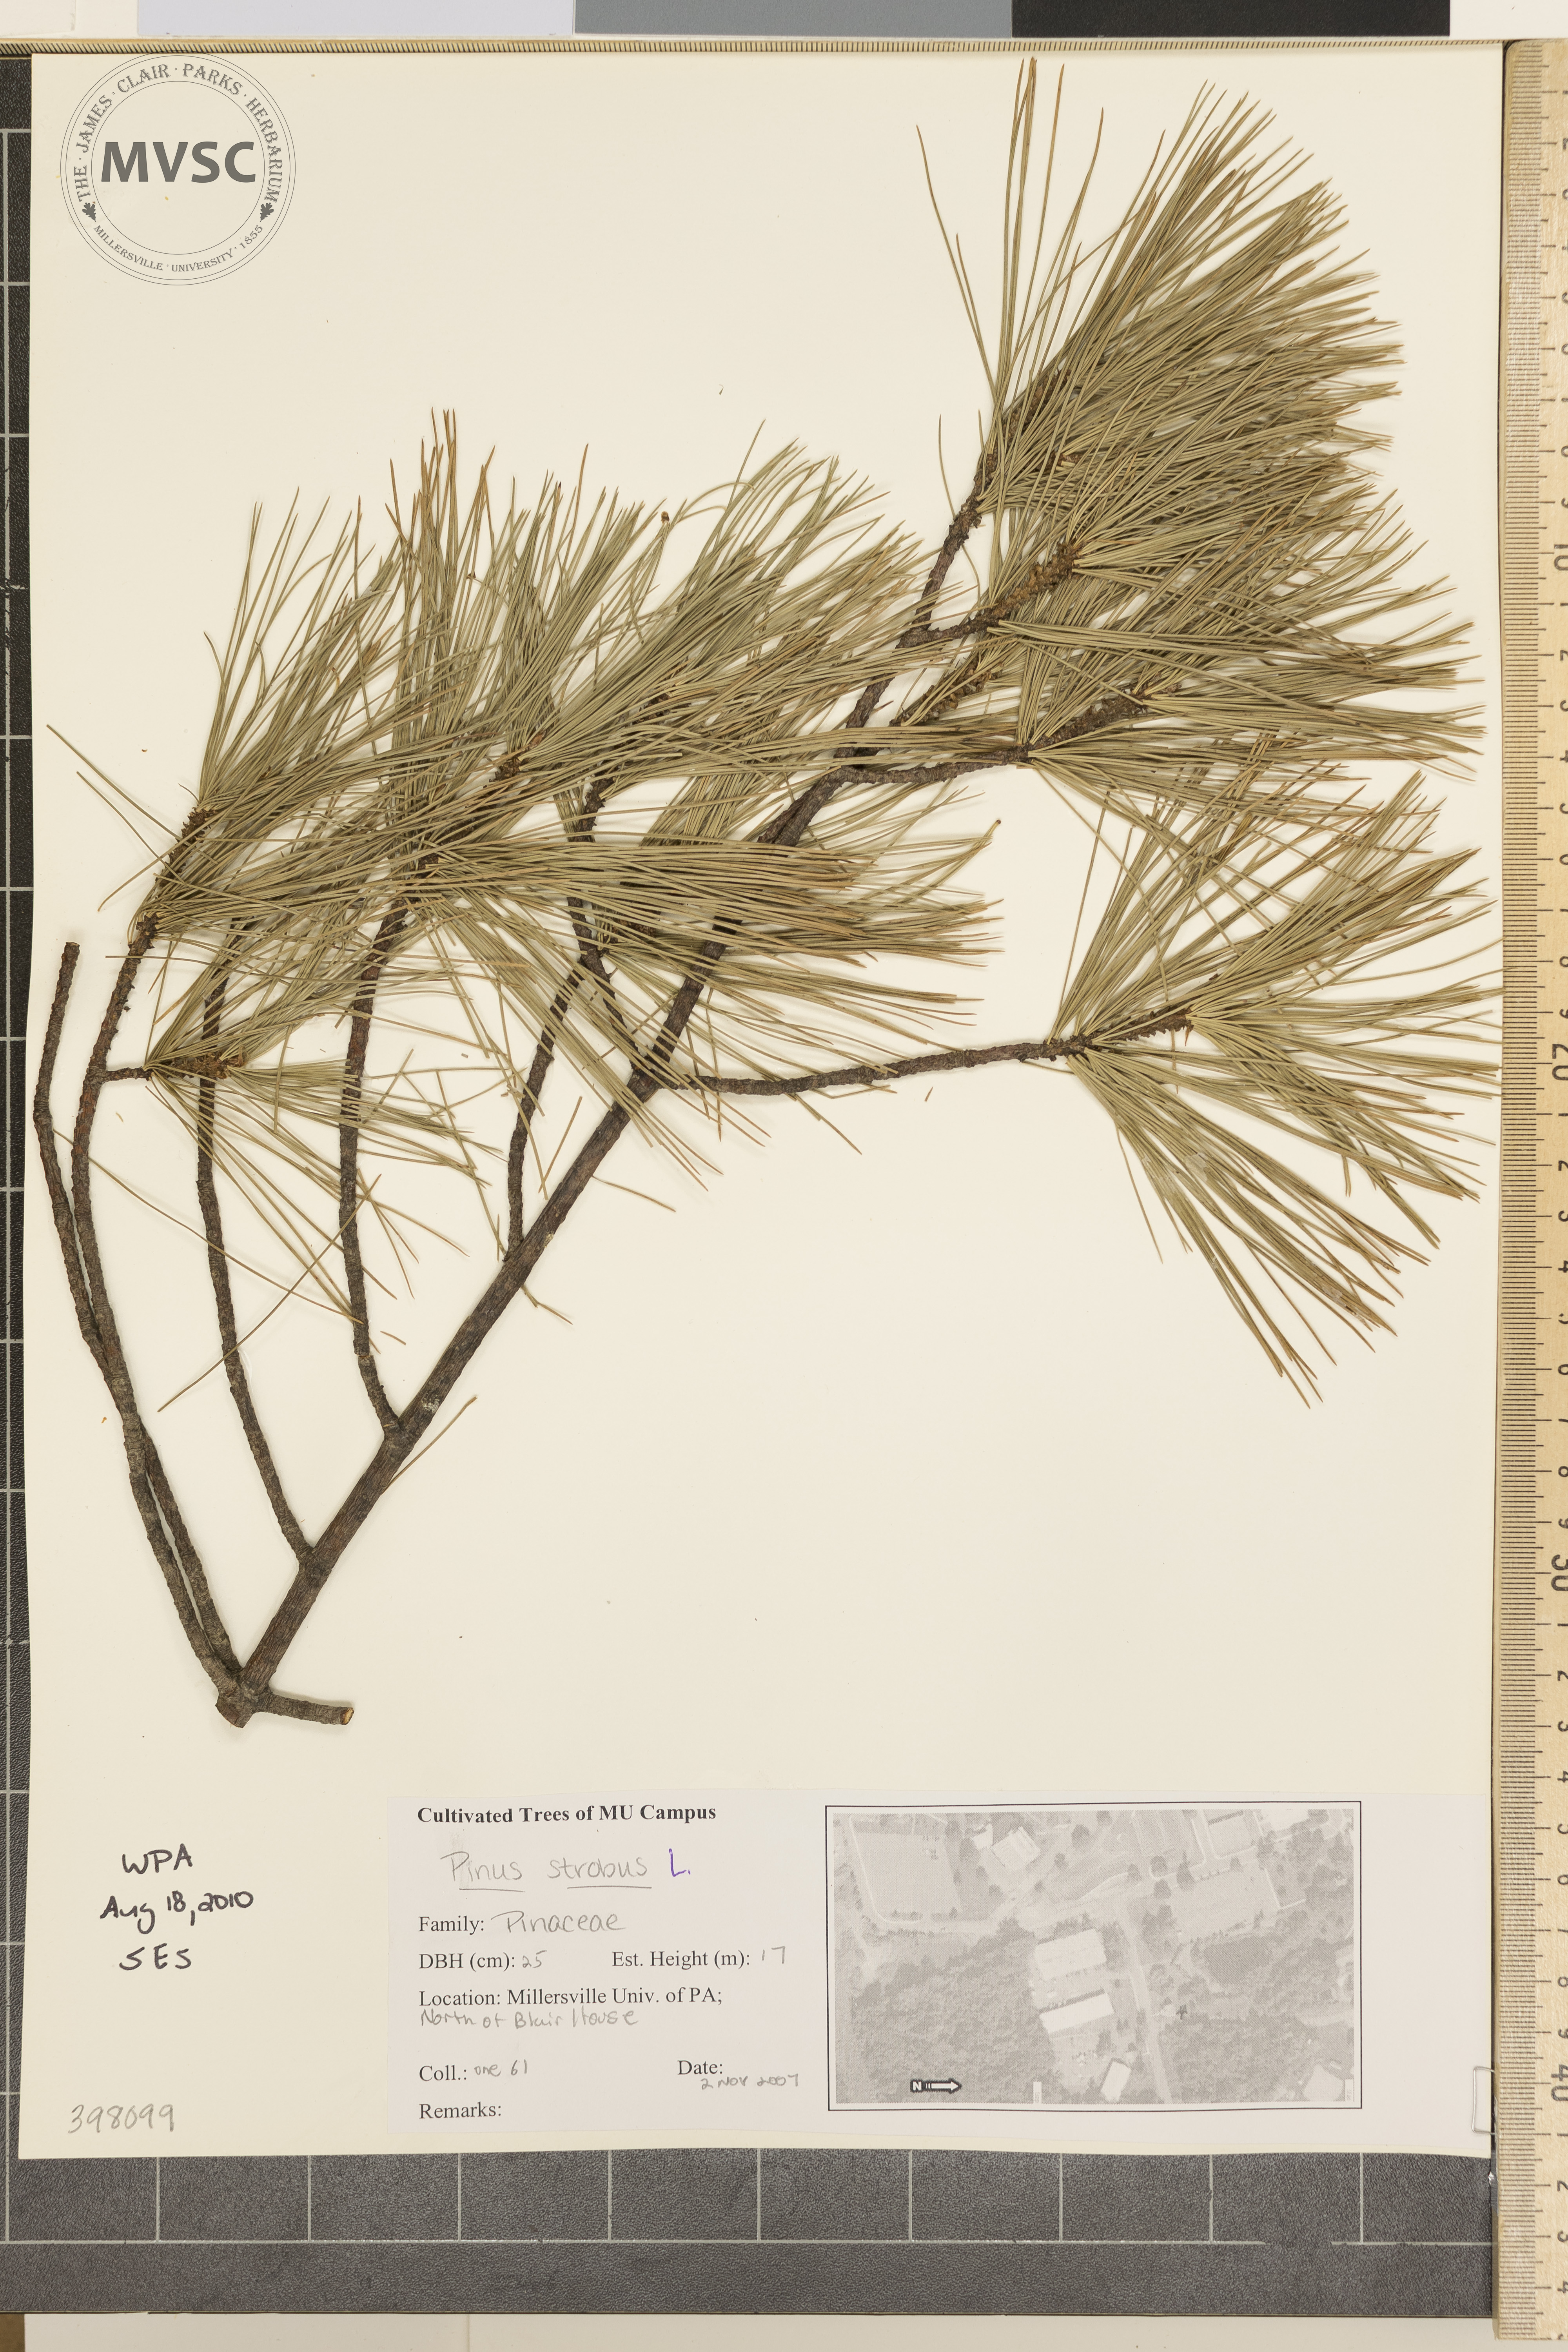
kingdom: Plantae
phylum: Tracheophyta
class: Pinopsida
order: Pinales
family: Pinaceae
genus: Pinus
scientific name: Pinus strobus
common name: Eastern white pine
